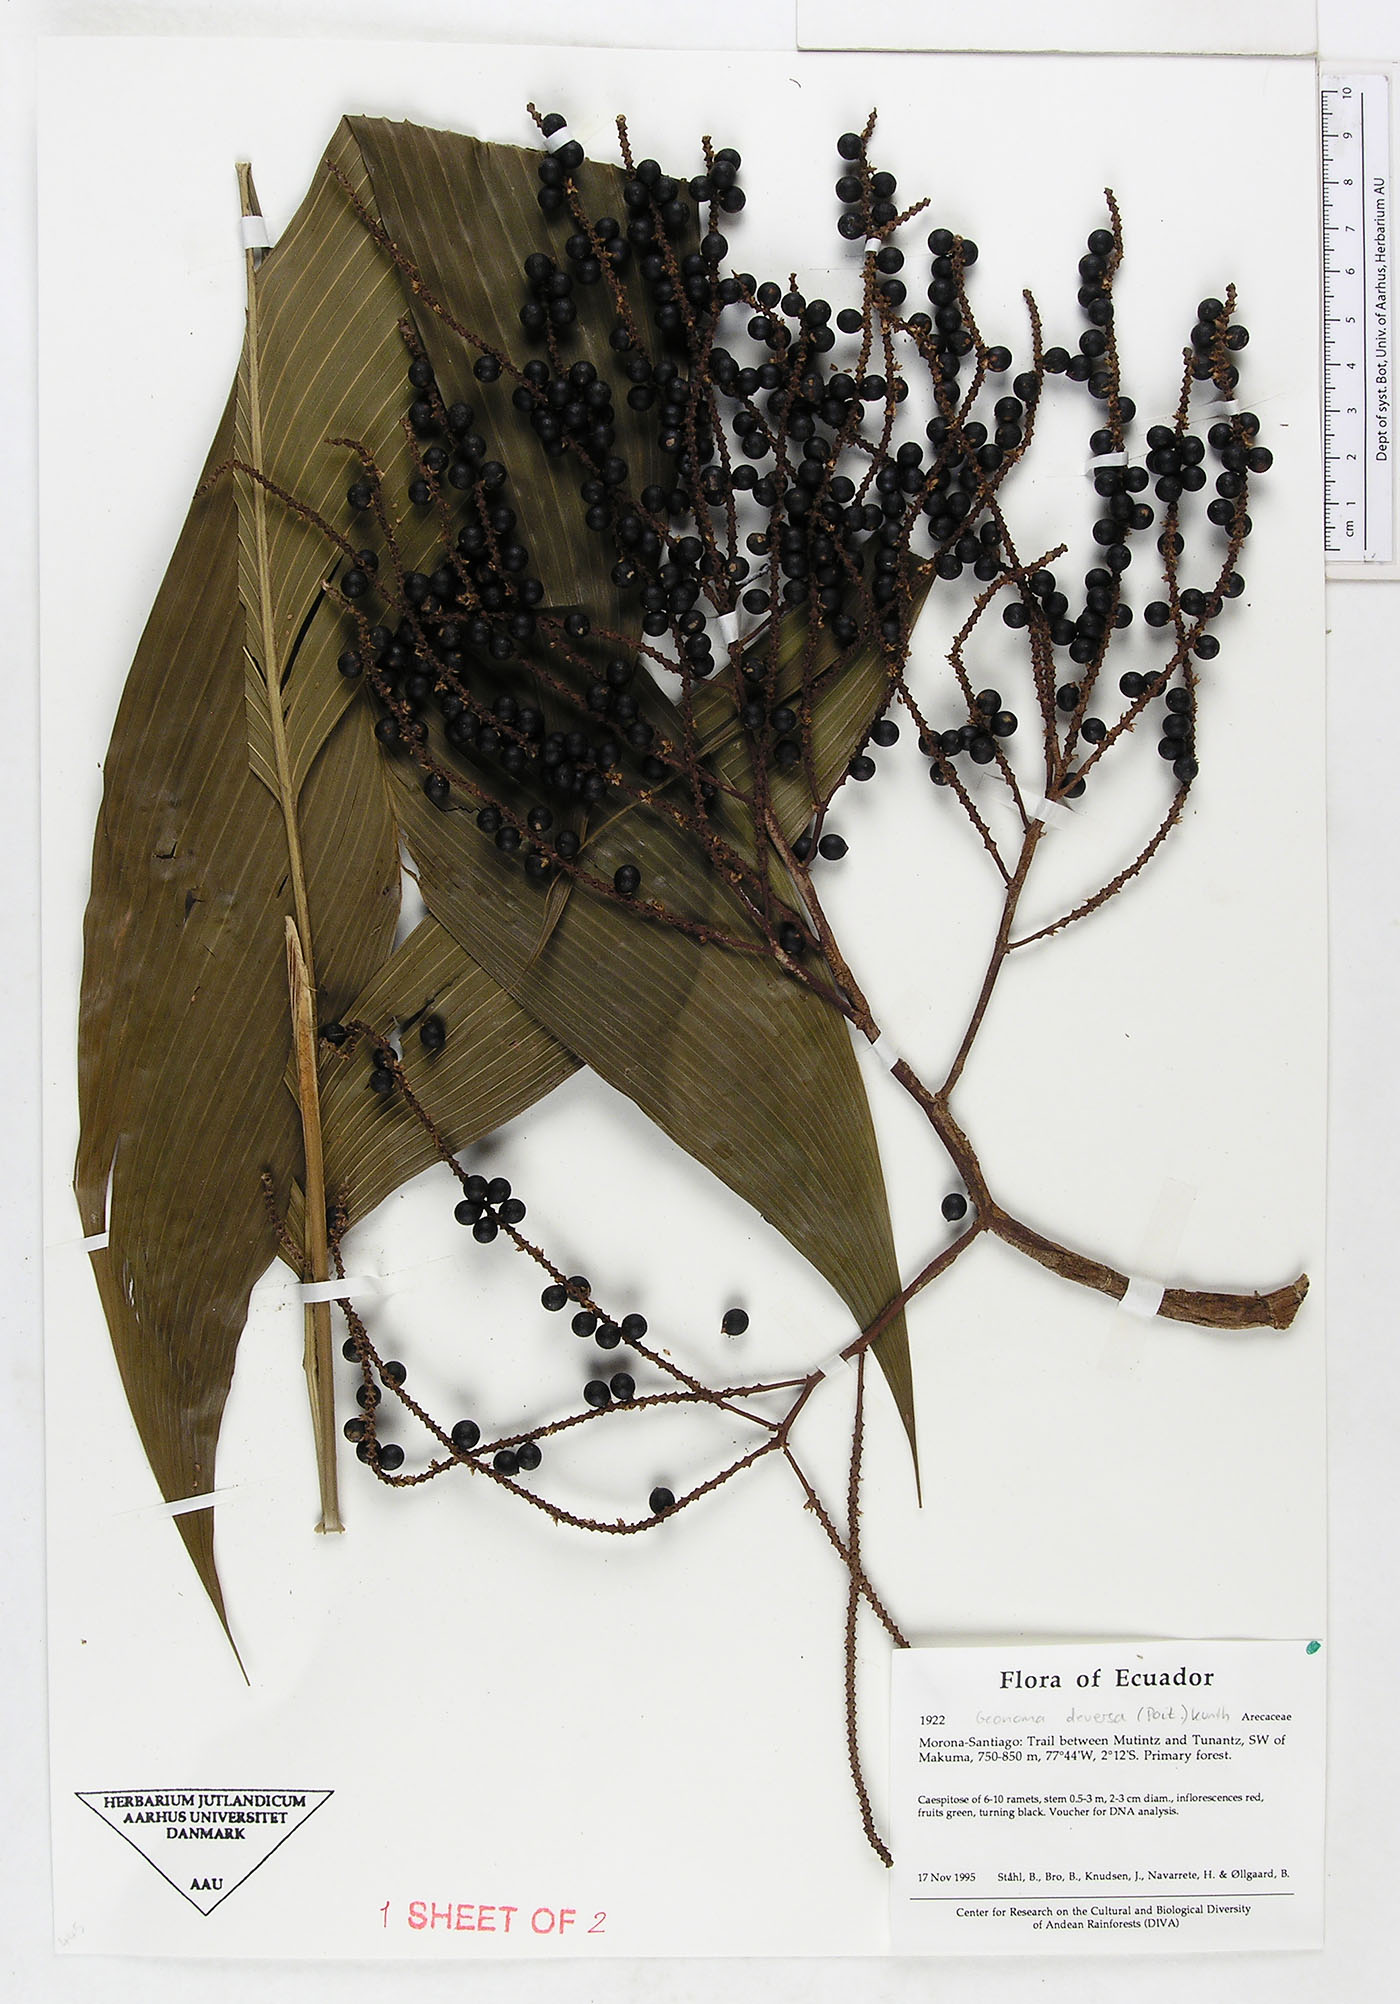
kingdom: Plantae
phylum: Tracheophyta
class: Liliopsida
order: Arecales
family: Arecaceae
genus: Geonoma
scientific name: Geonoma deversa
